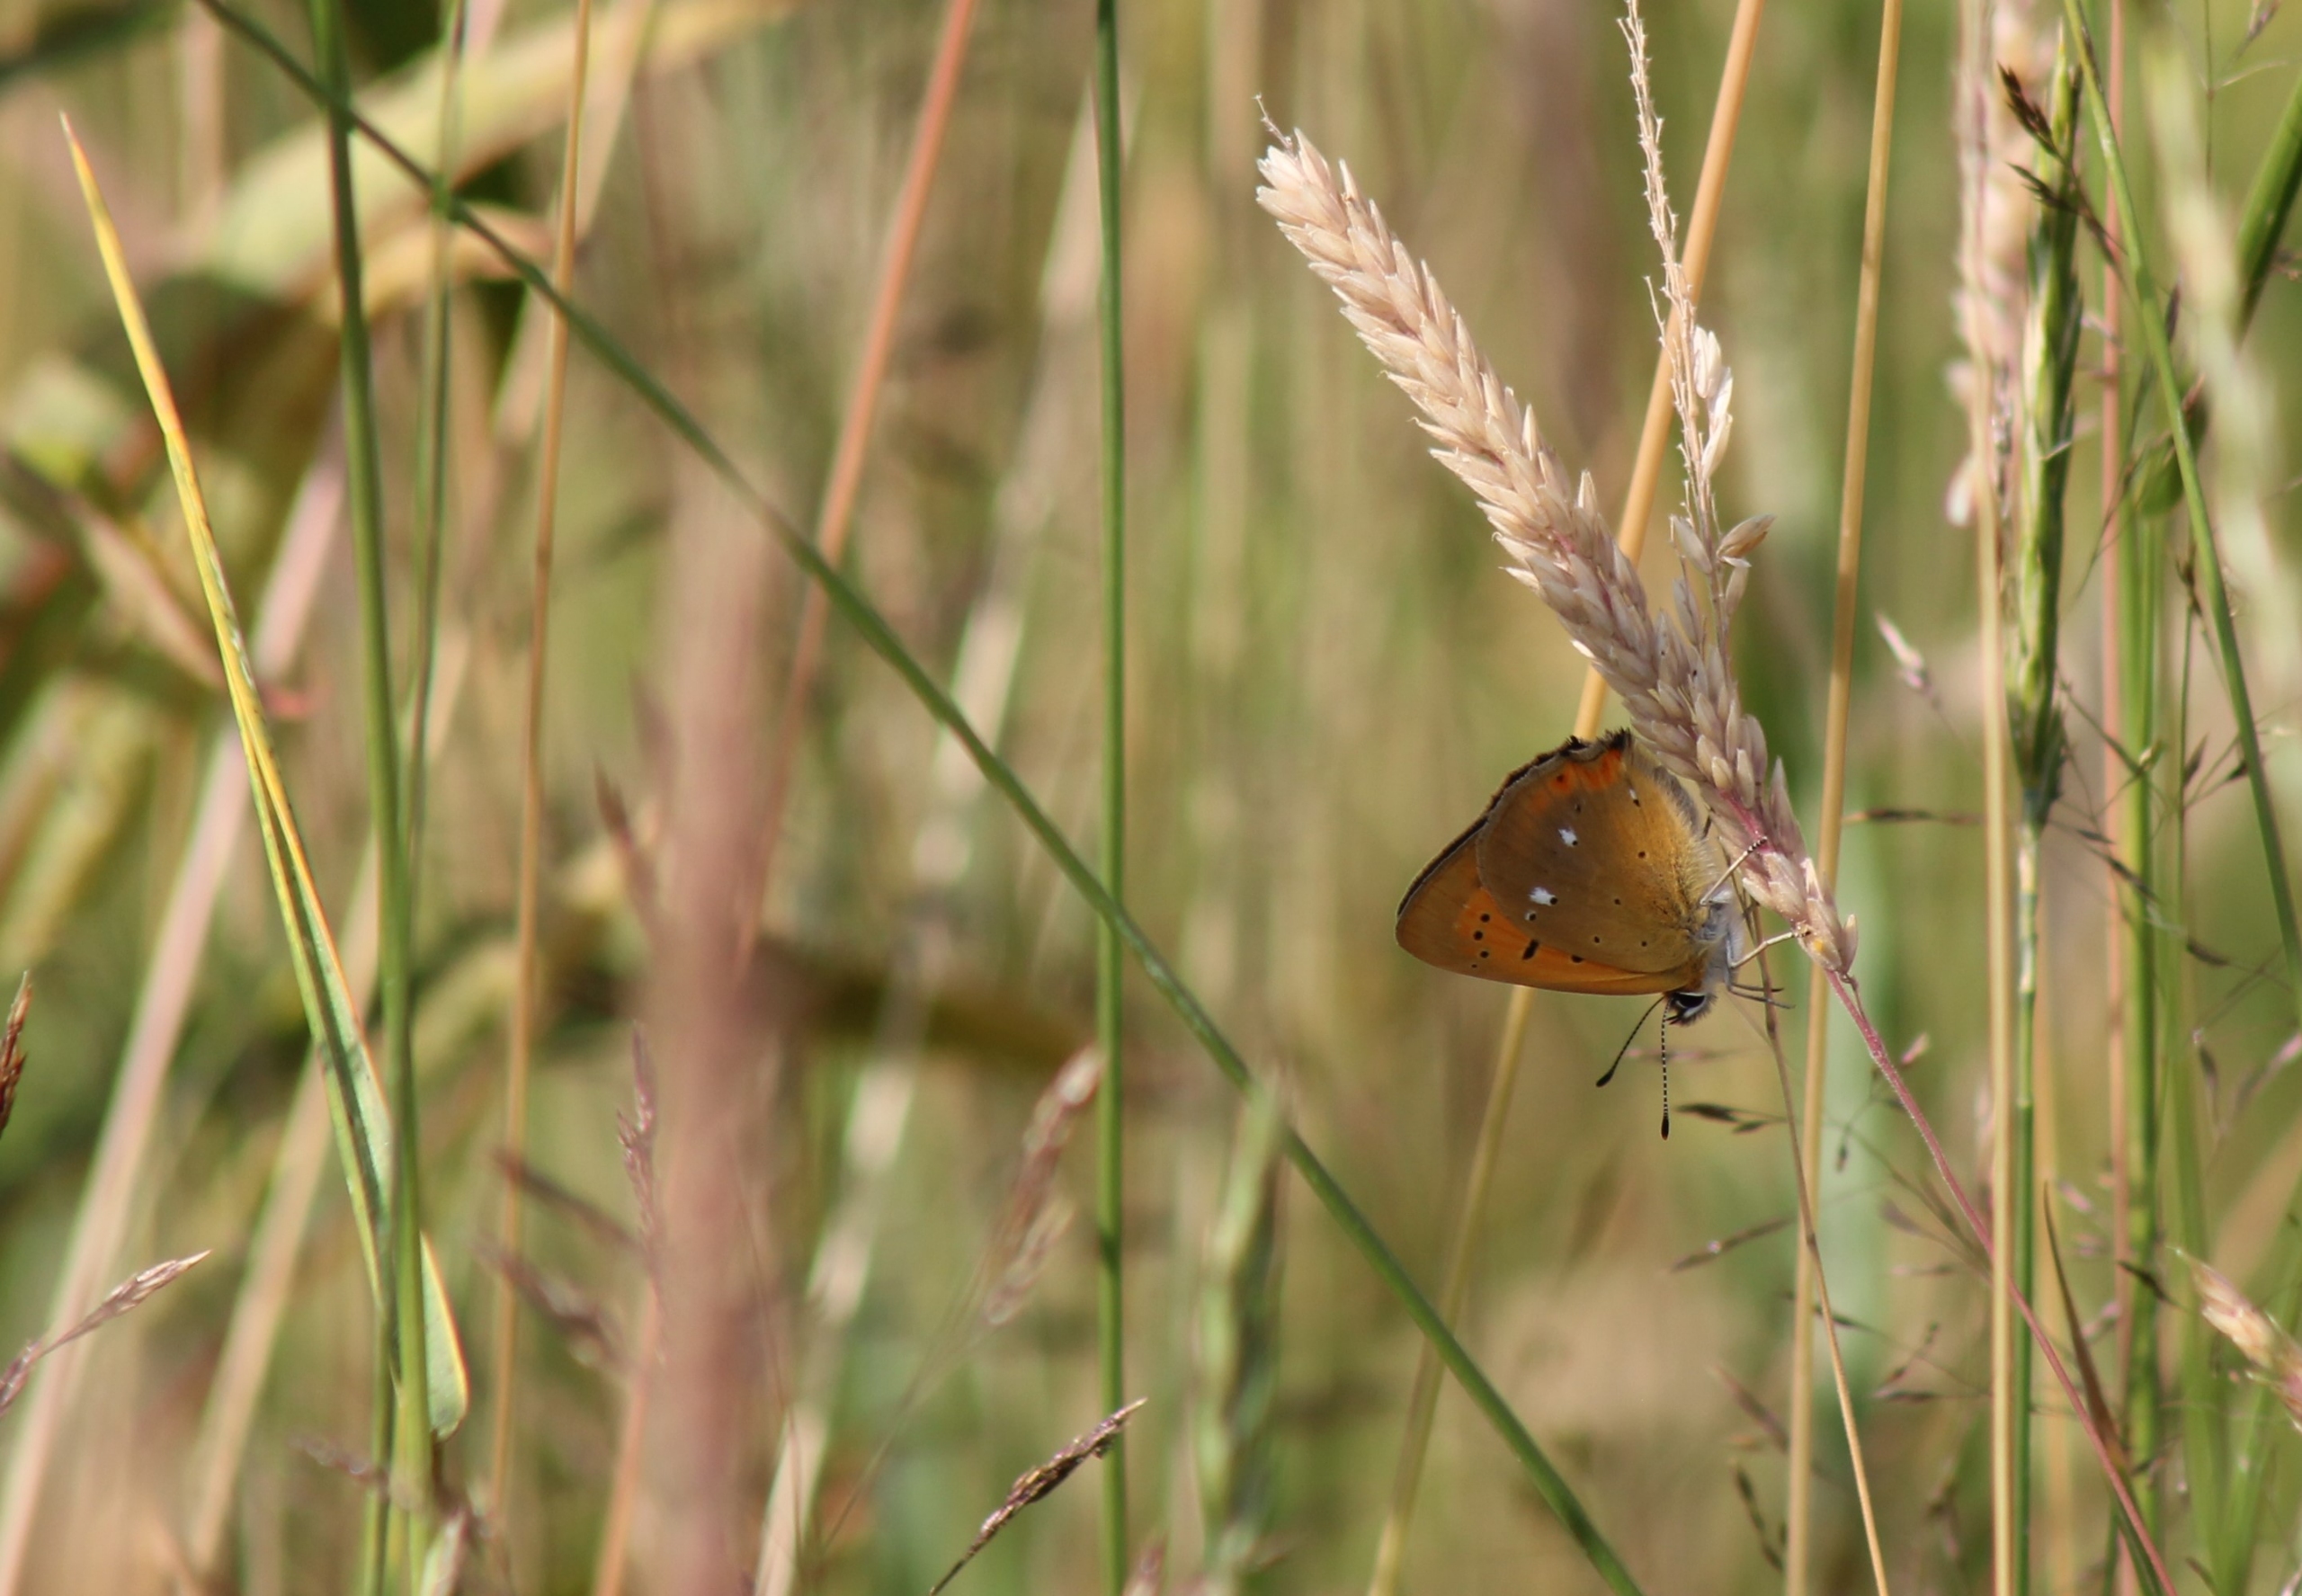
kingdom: Animalia
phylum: Arthropoda
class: Insecta
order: Lepidoptera
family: Lycaenidae
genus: Lycaena
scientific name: Lycaena virgaureae
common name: Dukatsommerfugl
